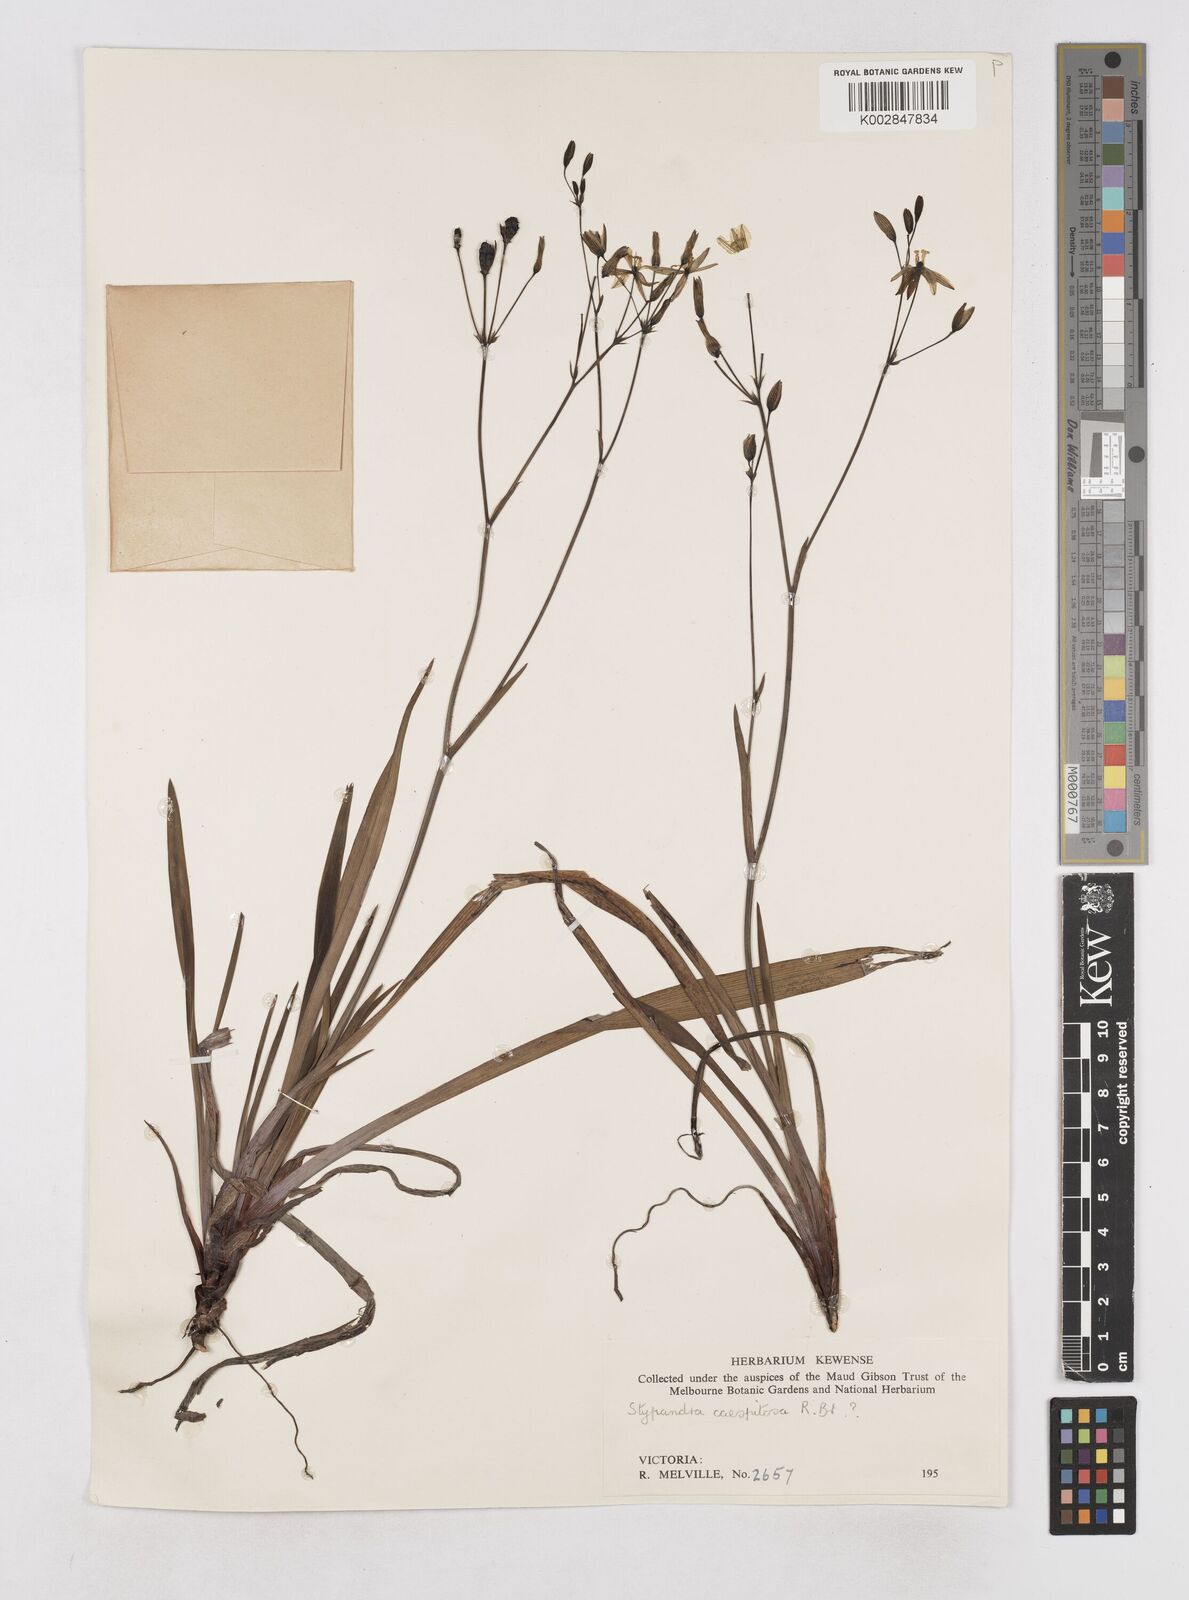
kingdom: Plantae
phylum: Tracheophyta
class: Liliopsida
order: Asparagales
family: Asphodelaceae
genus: Thelionema
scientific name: Thelionema caespitosum
